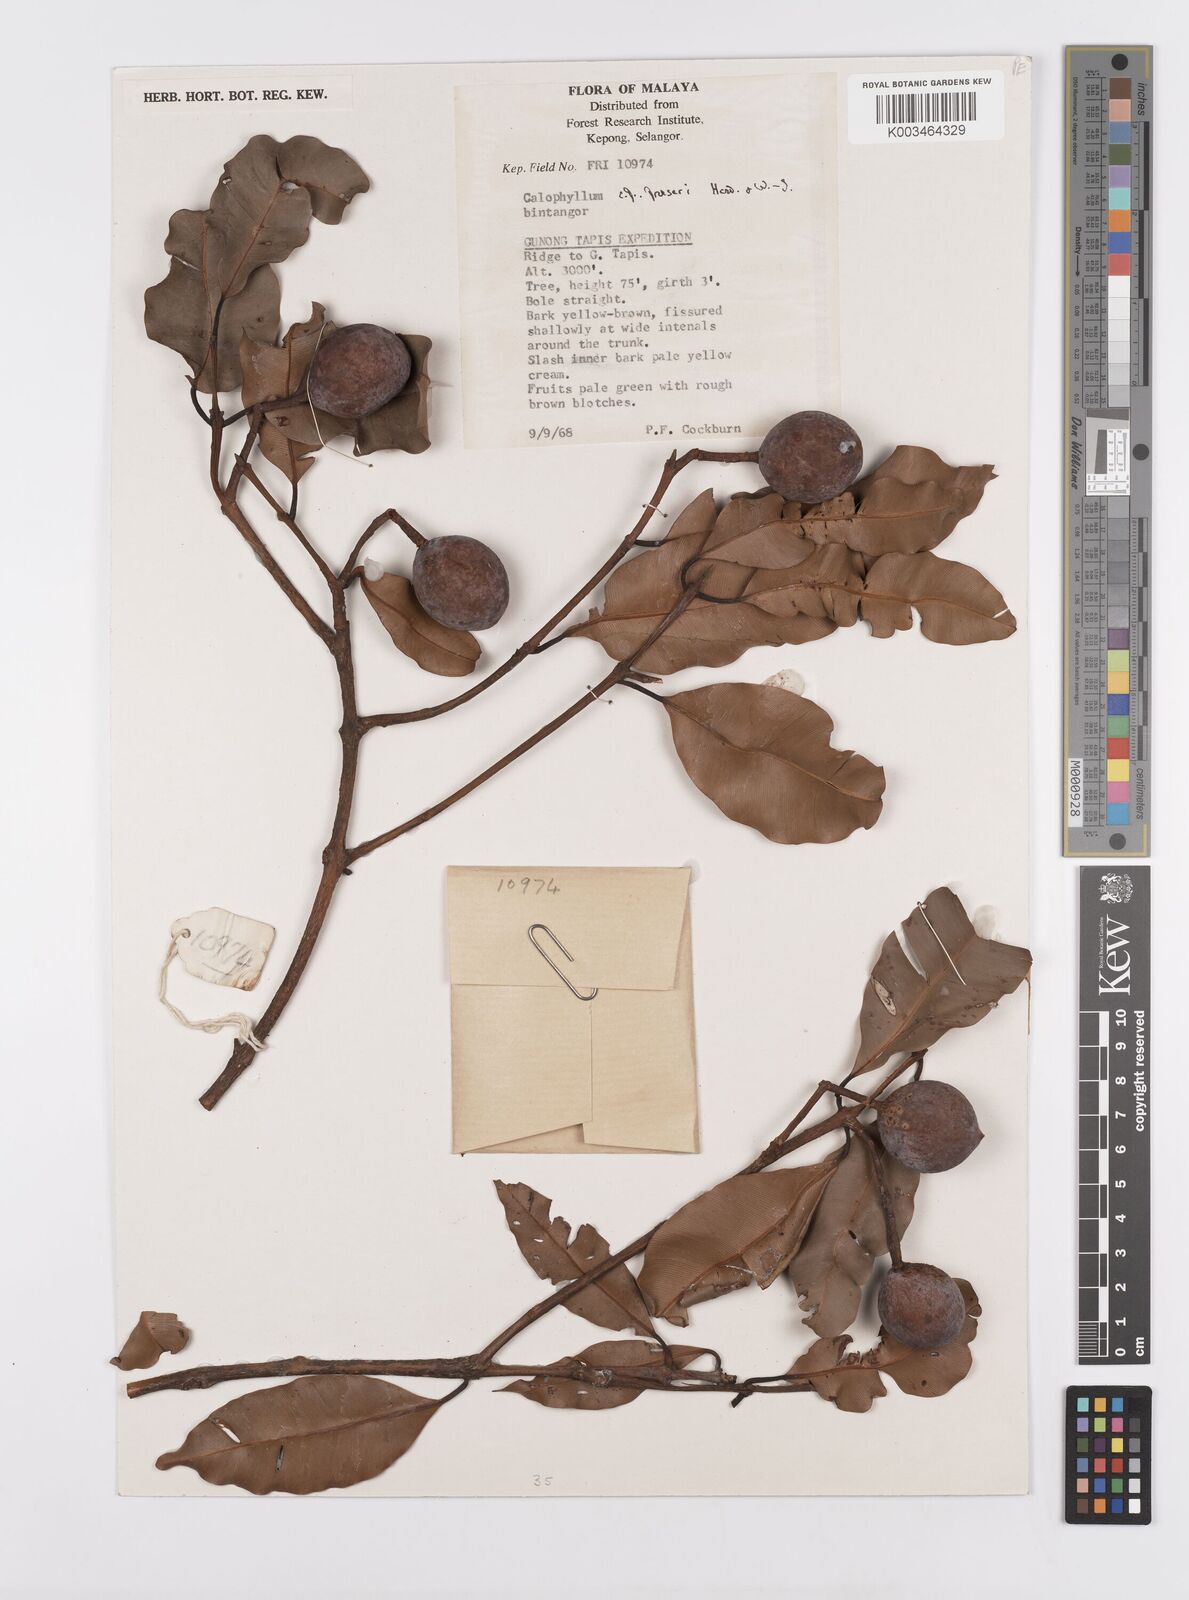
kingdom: Plantae
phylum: Tracheophyta
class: Magnoliopsida
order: Malpighiales
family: Calophyllaceae
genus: Calophyllum
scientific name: Calophyllum fraseri
